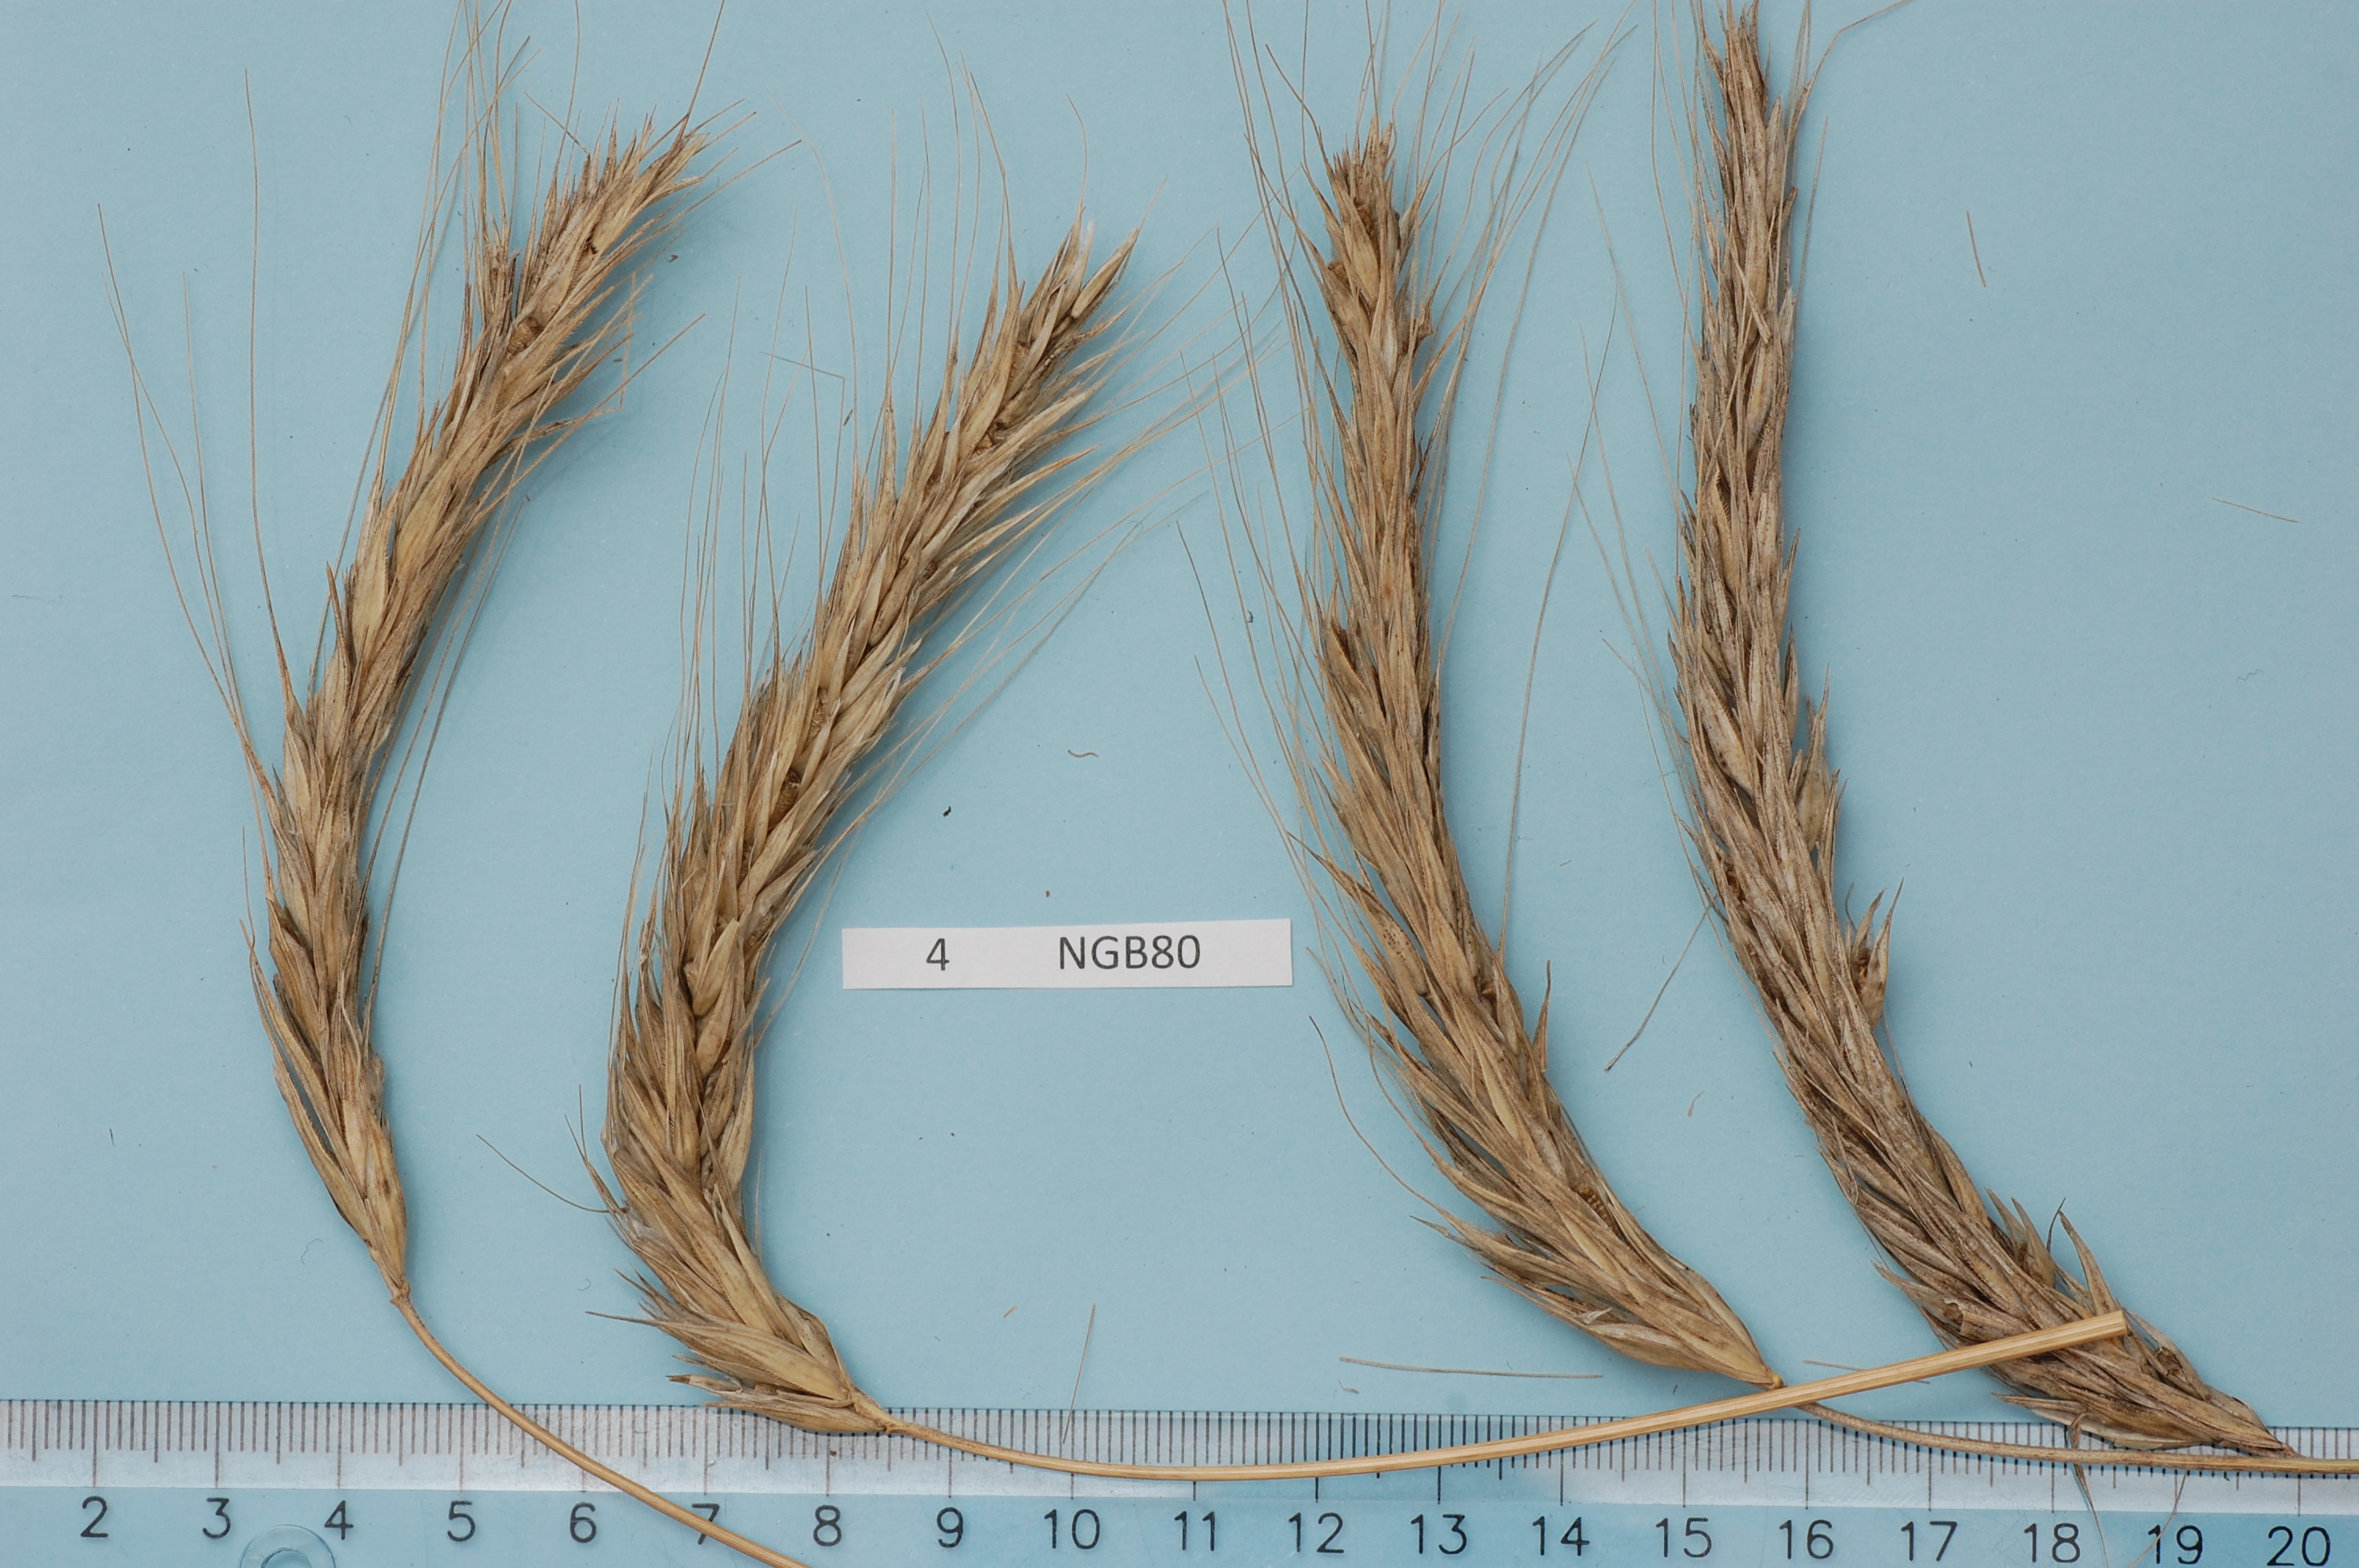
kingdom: Plantae
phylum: Tracheophyta
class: Liliopsida
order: Poales
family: Poaceae
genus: Secale
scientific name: Secale cereale
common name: Rye
